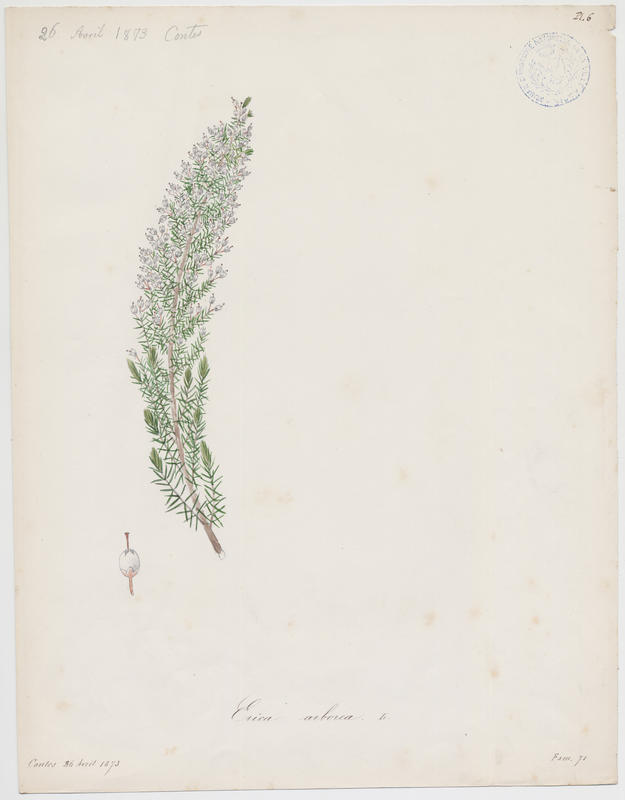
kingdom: Plantae
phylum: Tracheophyta
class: Magnoliopsida
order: Ericales
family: Ericaceae
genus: Erica
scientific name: Erica arborea
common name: Tree heath
